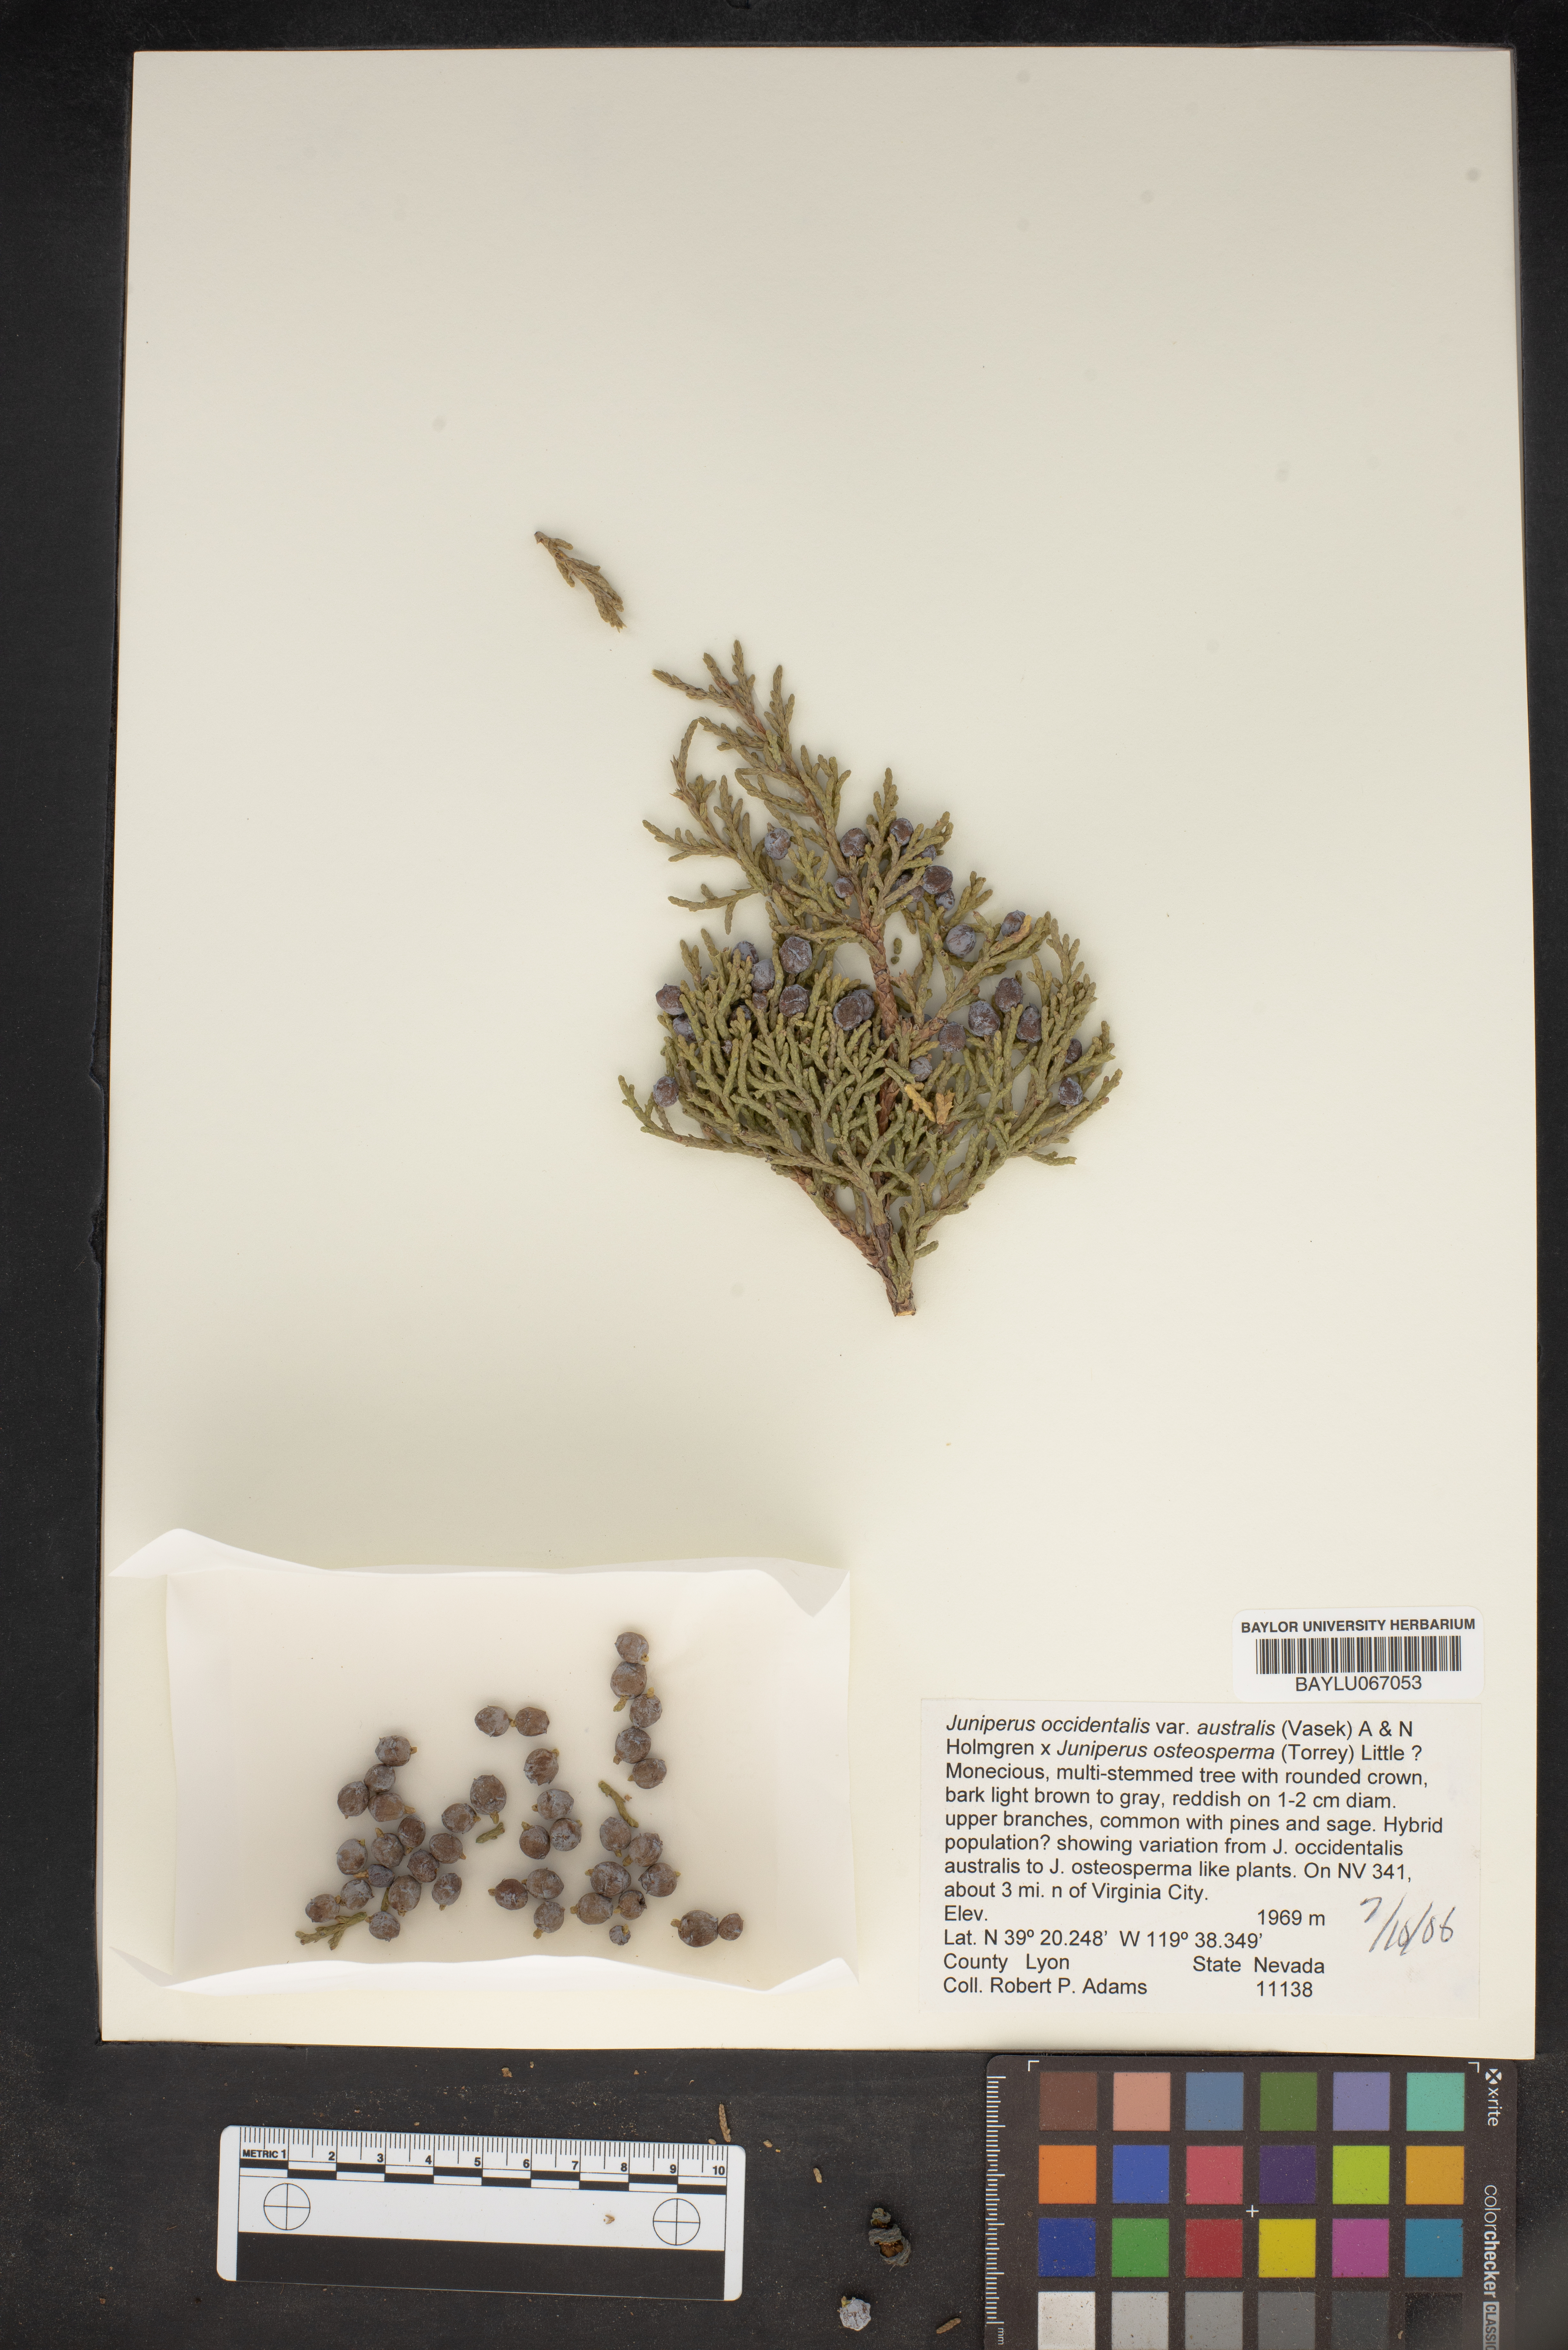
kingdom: Plantae
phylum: Tracheophyta
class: Pinopsida
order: Pinales
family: Cupressaceae
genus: Juniperus
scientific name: Juniperus occidentalis
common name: Western juniper
